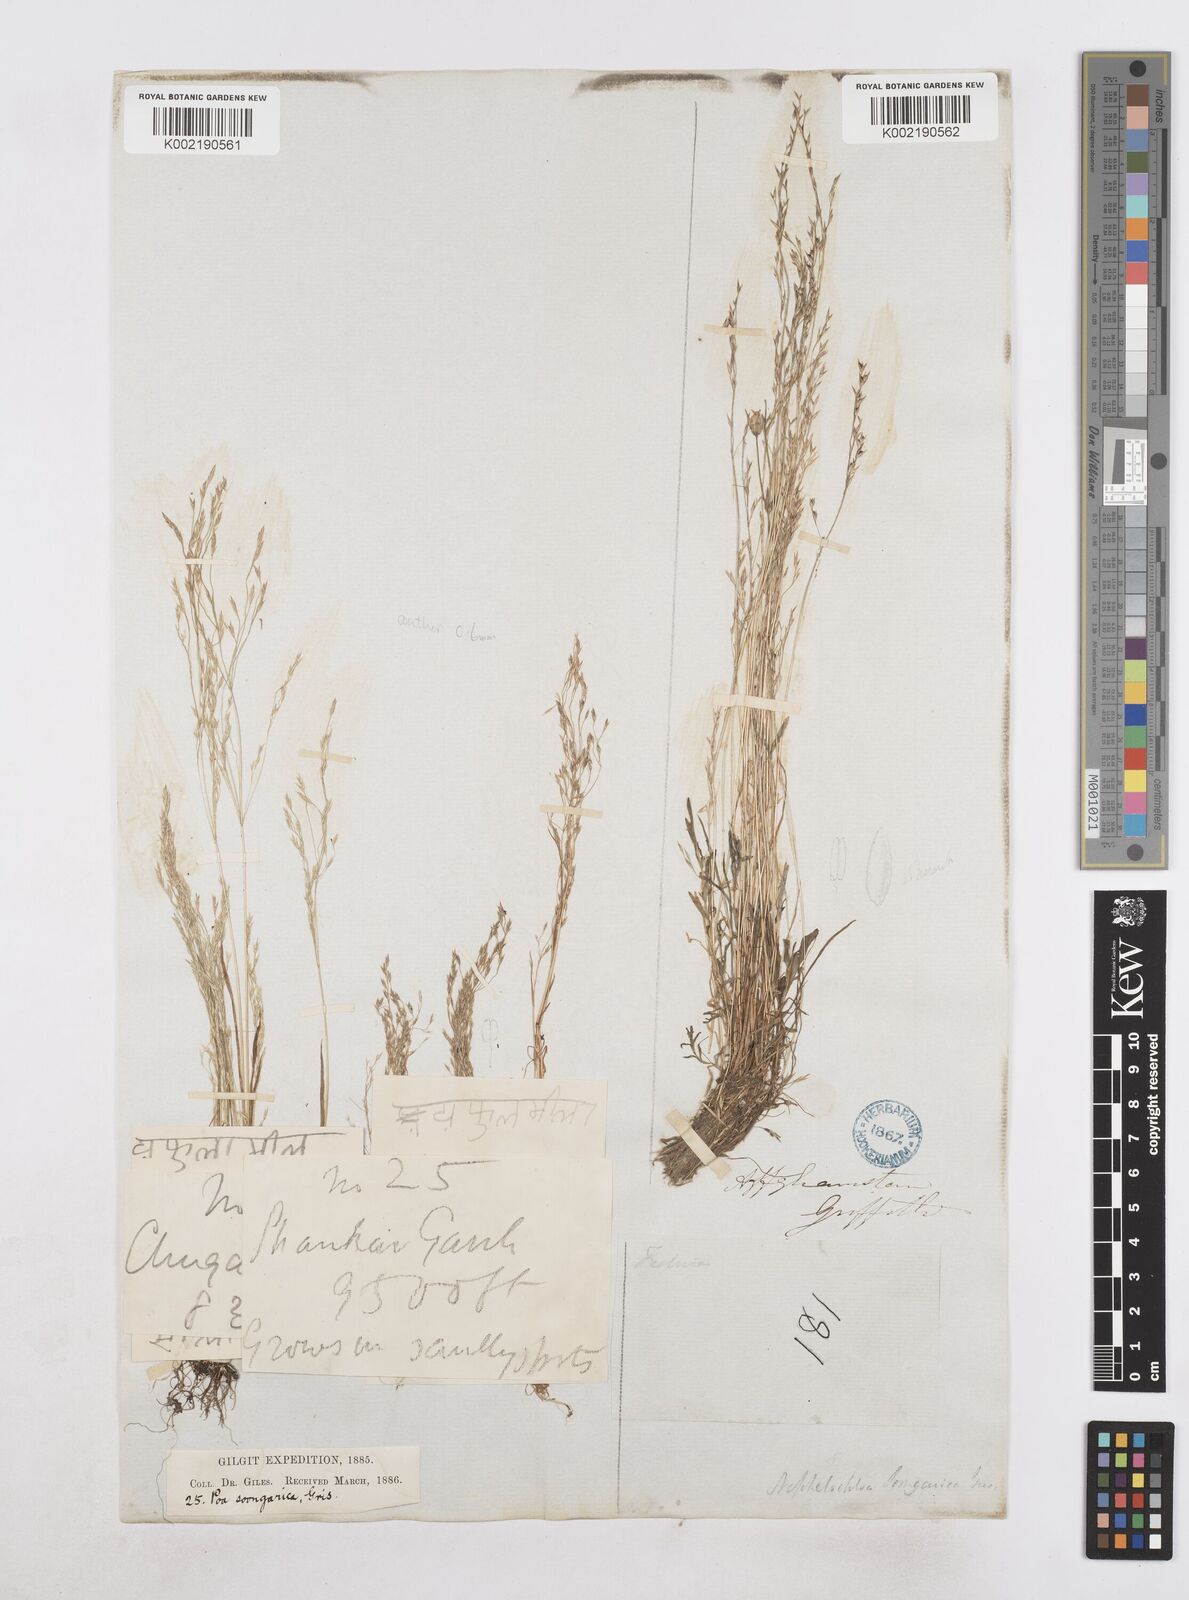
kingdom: Plantae
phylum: Tracheophyta
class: Liliopsida
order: Poales
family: Poaceae
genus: Poa
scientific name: Poa diaphora
